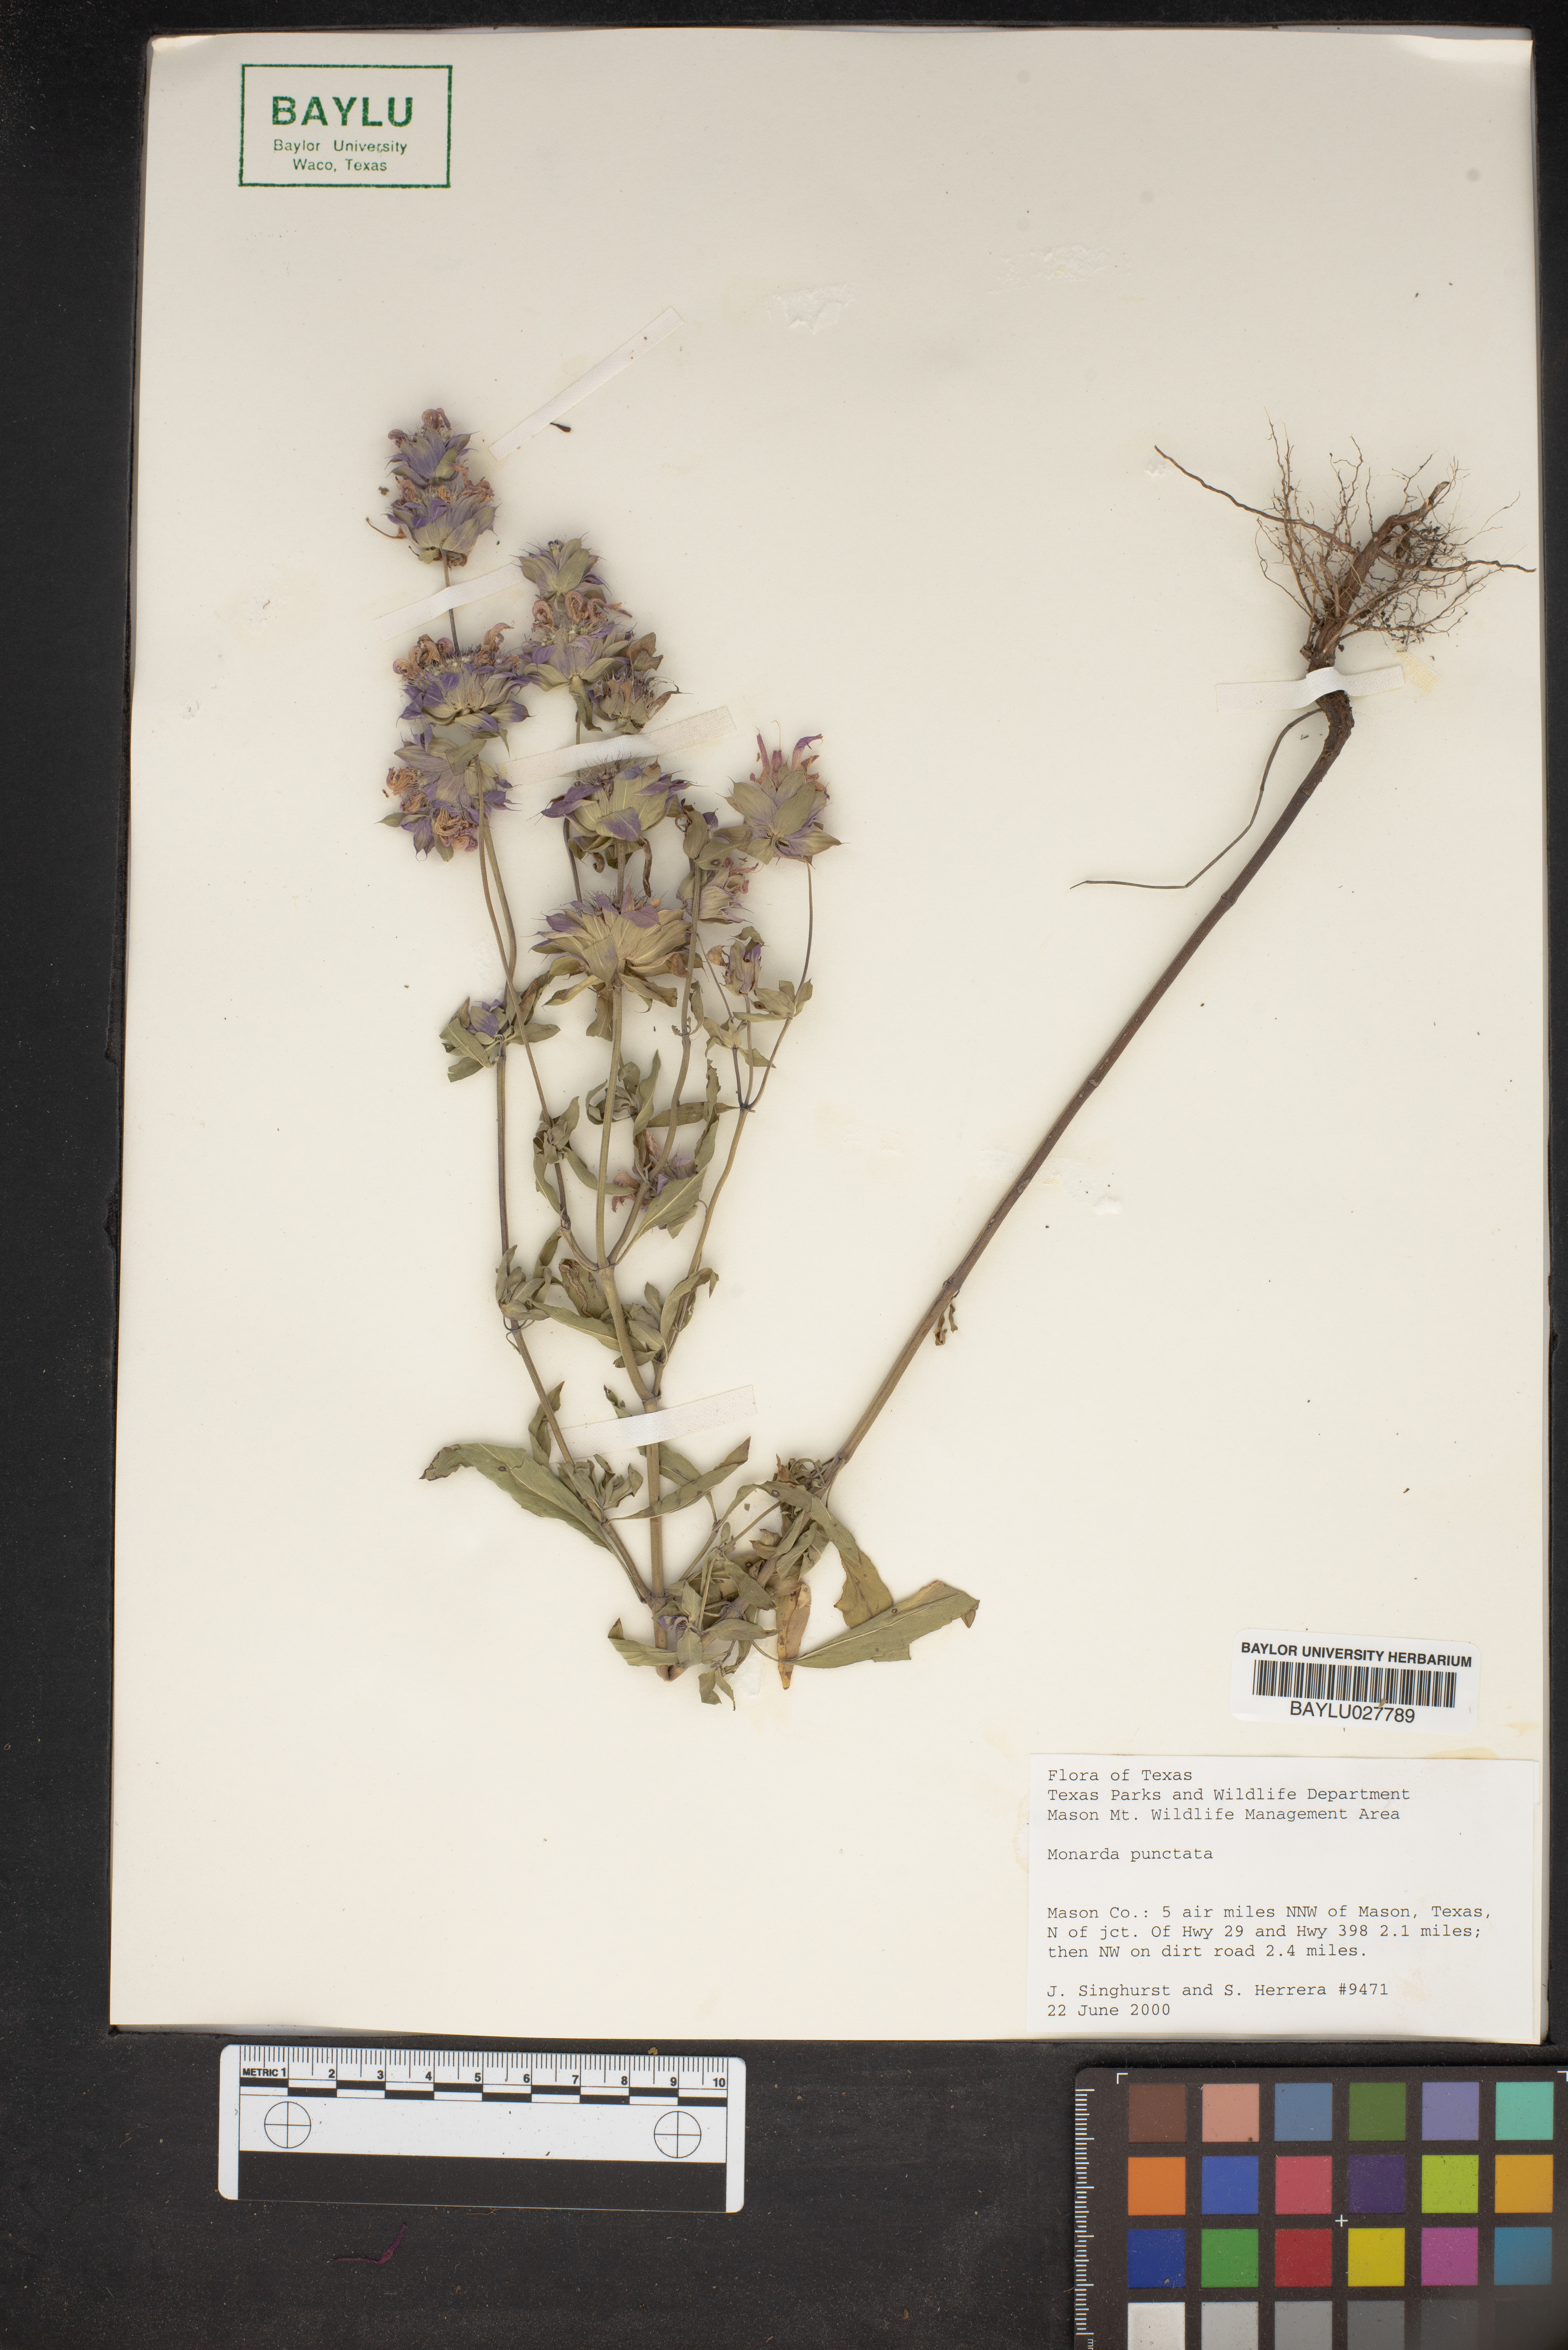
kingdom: Plantae
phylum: Tracheophyta
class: Magnoliopsida
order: Lamiales
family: Lamiaceae
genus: Monarda
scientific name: Monarda punctata
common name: Dotted monarda
